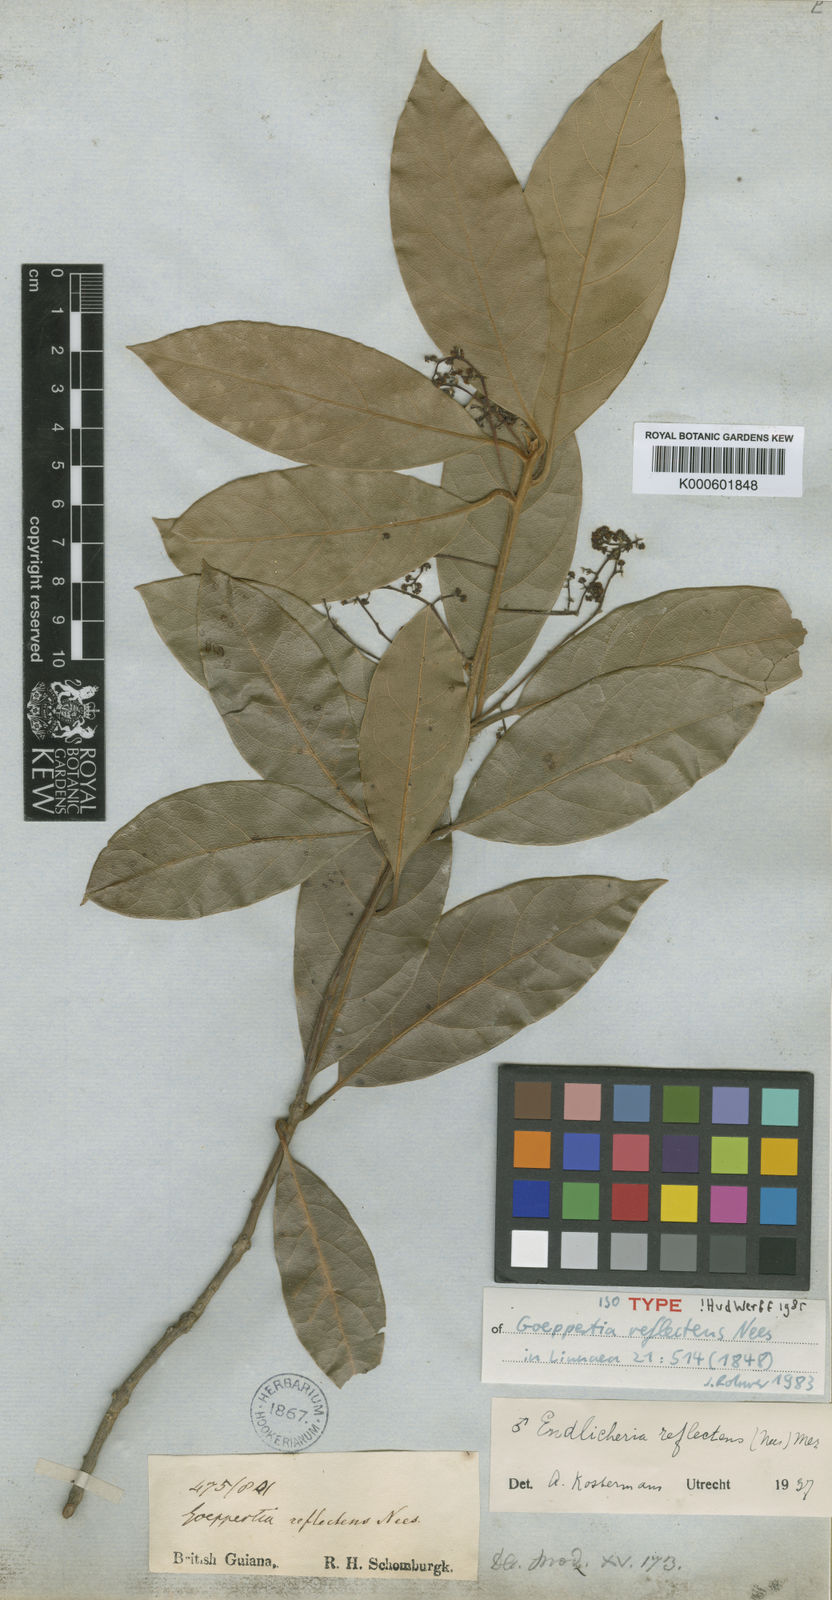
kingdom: Plantae
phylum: Tracheophyta
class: Magnoliopsida
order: Laurales
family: Lauraceae
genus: Endlicheria
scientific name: Endlicheria reflectens
